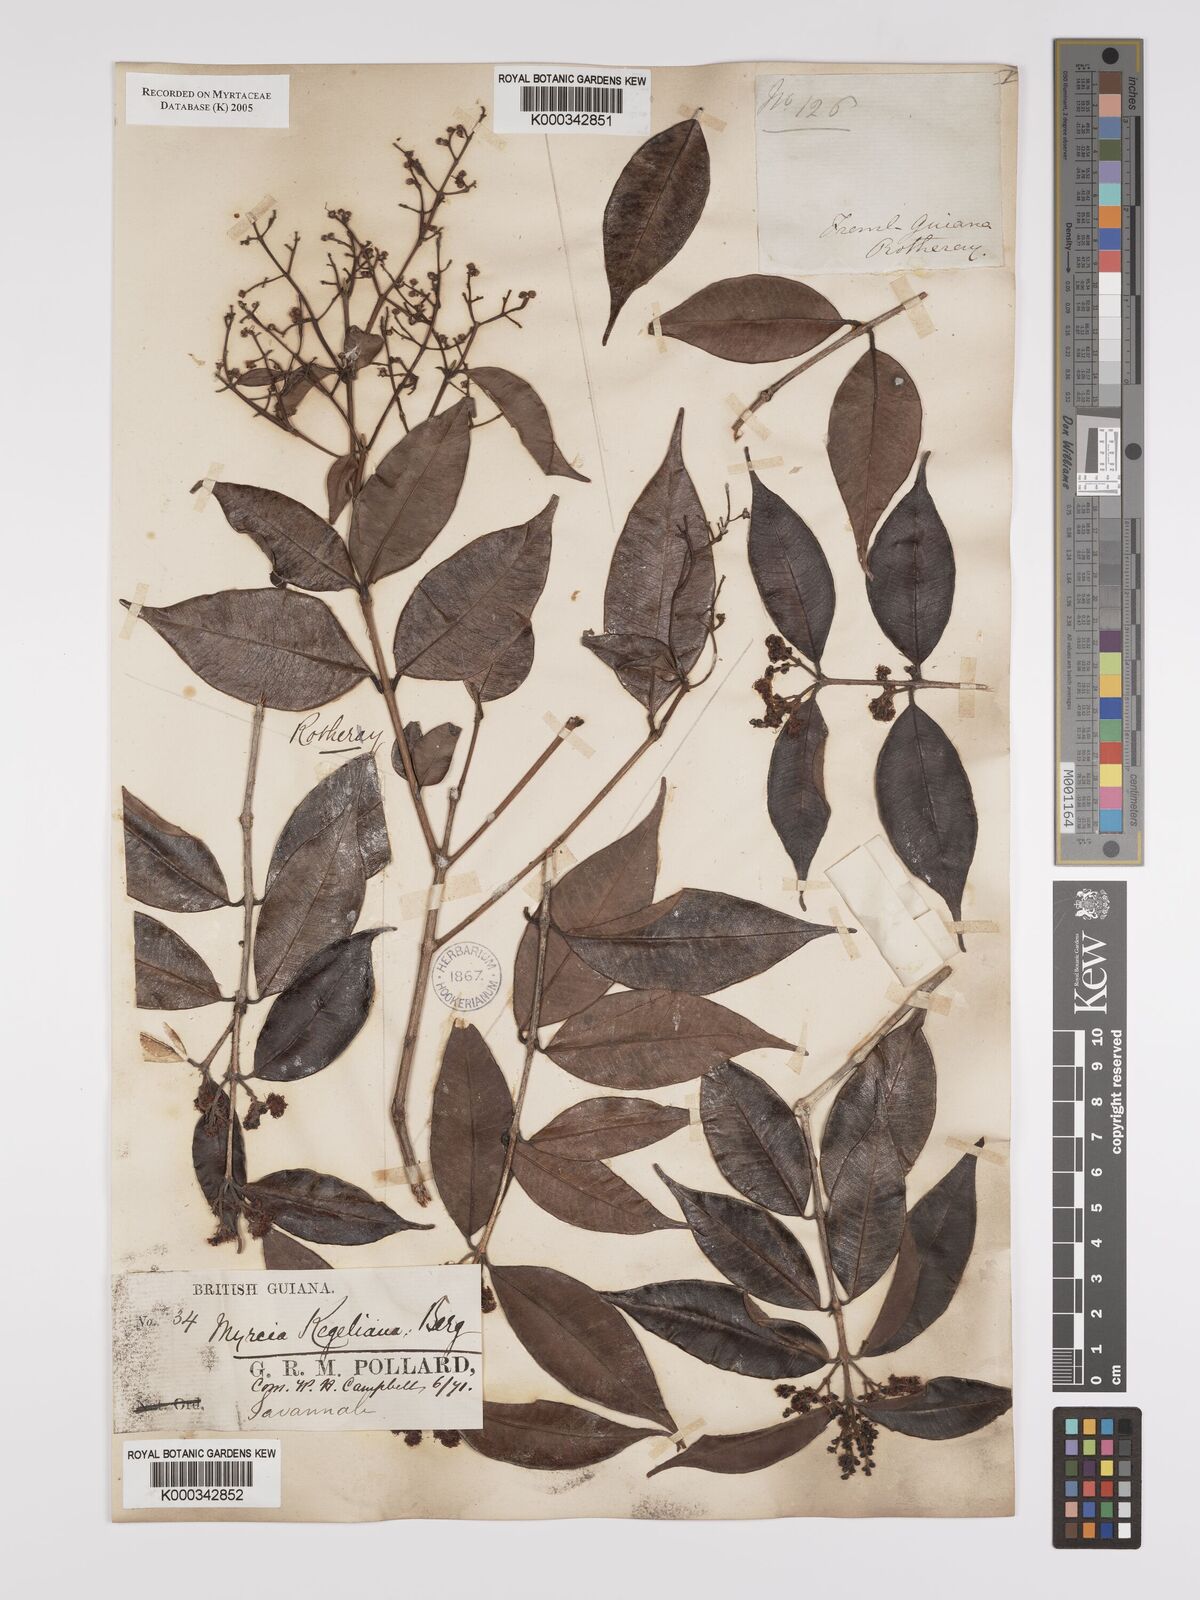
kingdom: Plantae
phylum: Tracheophyta
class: Magnoliopsida
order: Myrtales
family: Myrtaceae
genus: Myrcia
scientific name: Myrcia splendens
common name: Surinam cherry
